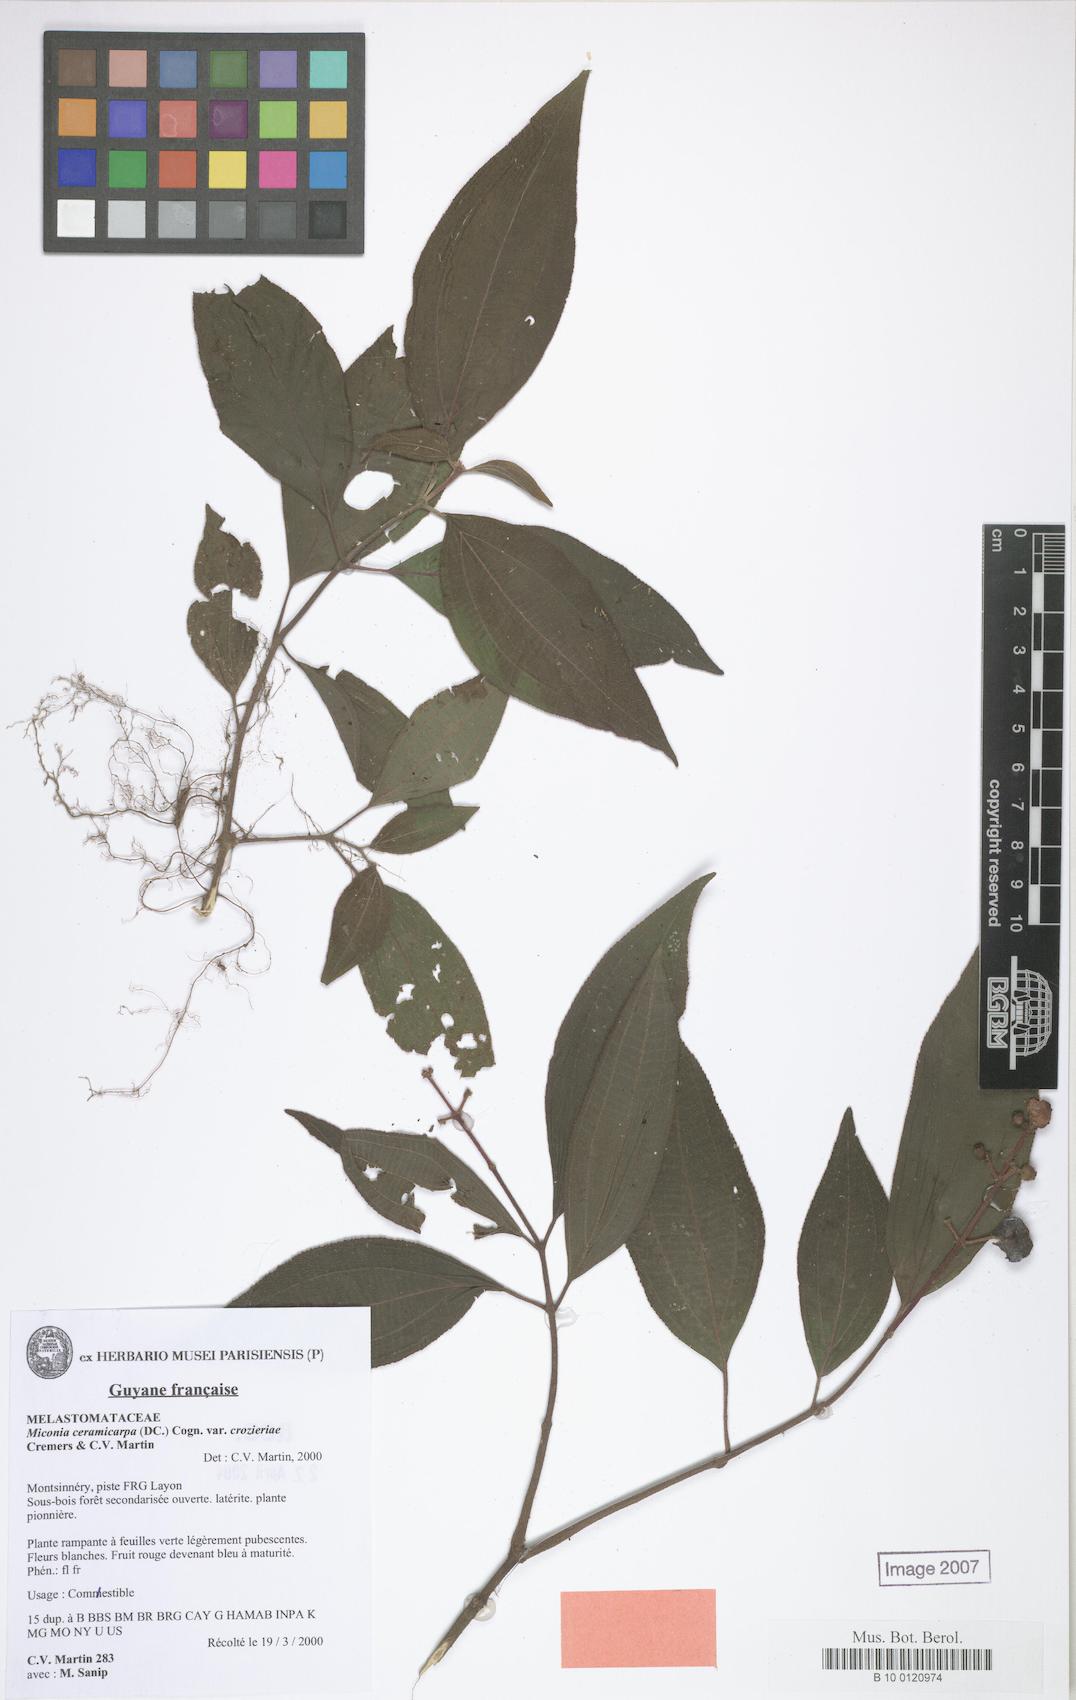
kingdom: Plantae
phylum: Tracheophyta
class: Magnoliopsida
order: Myrtales
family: Melastomataceae
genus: Miconia
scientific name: Miconia ceramicarpa
